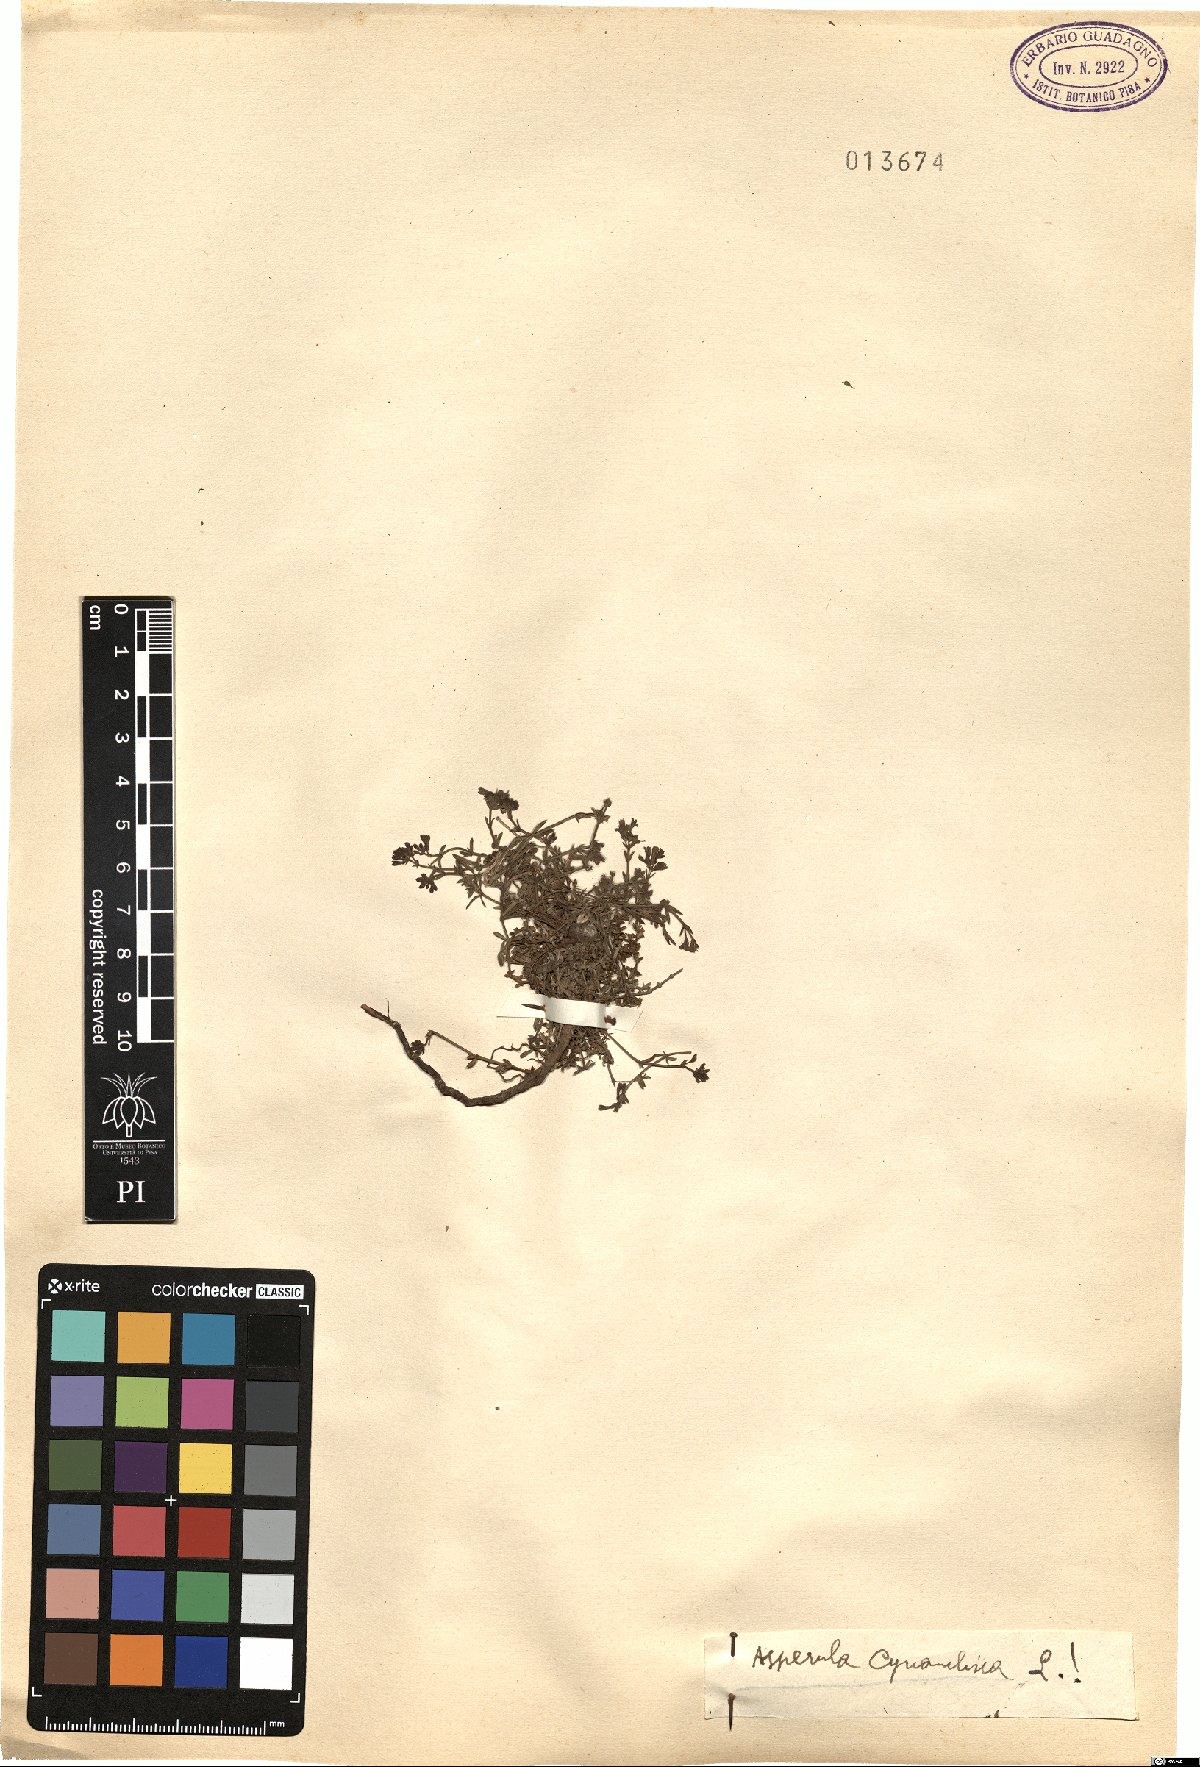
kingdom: Plantae
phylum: Tracheophyta
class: Magnoliopsida
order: Gentianales
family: Rubiaceae
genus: Cynanchica
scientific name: Cynanchica pyrenaica
